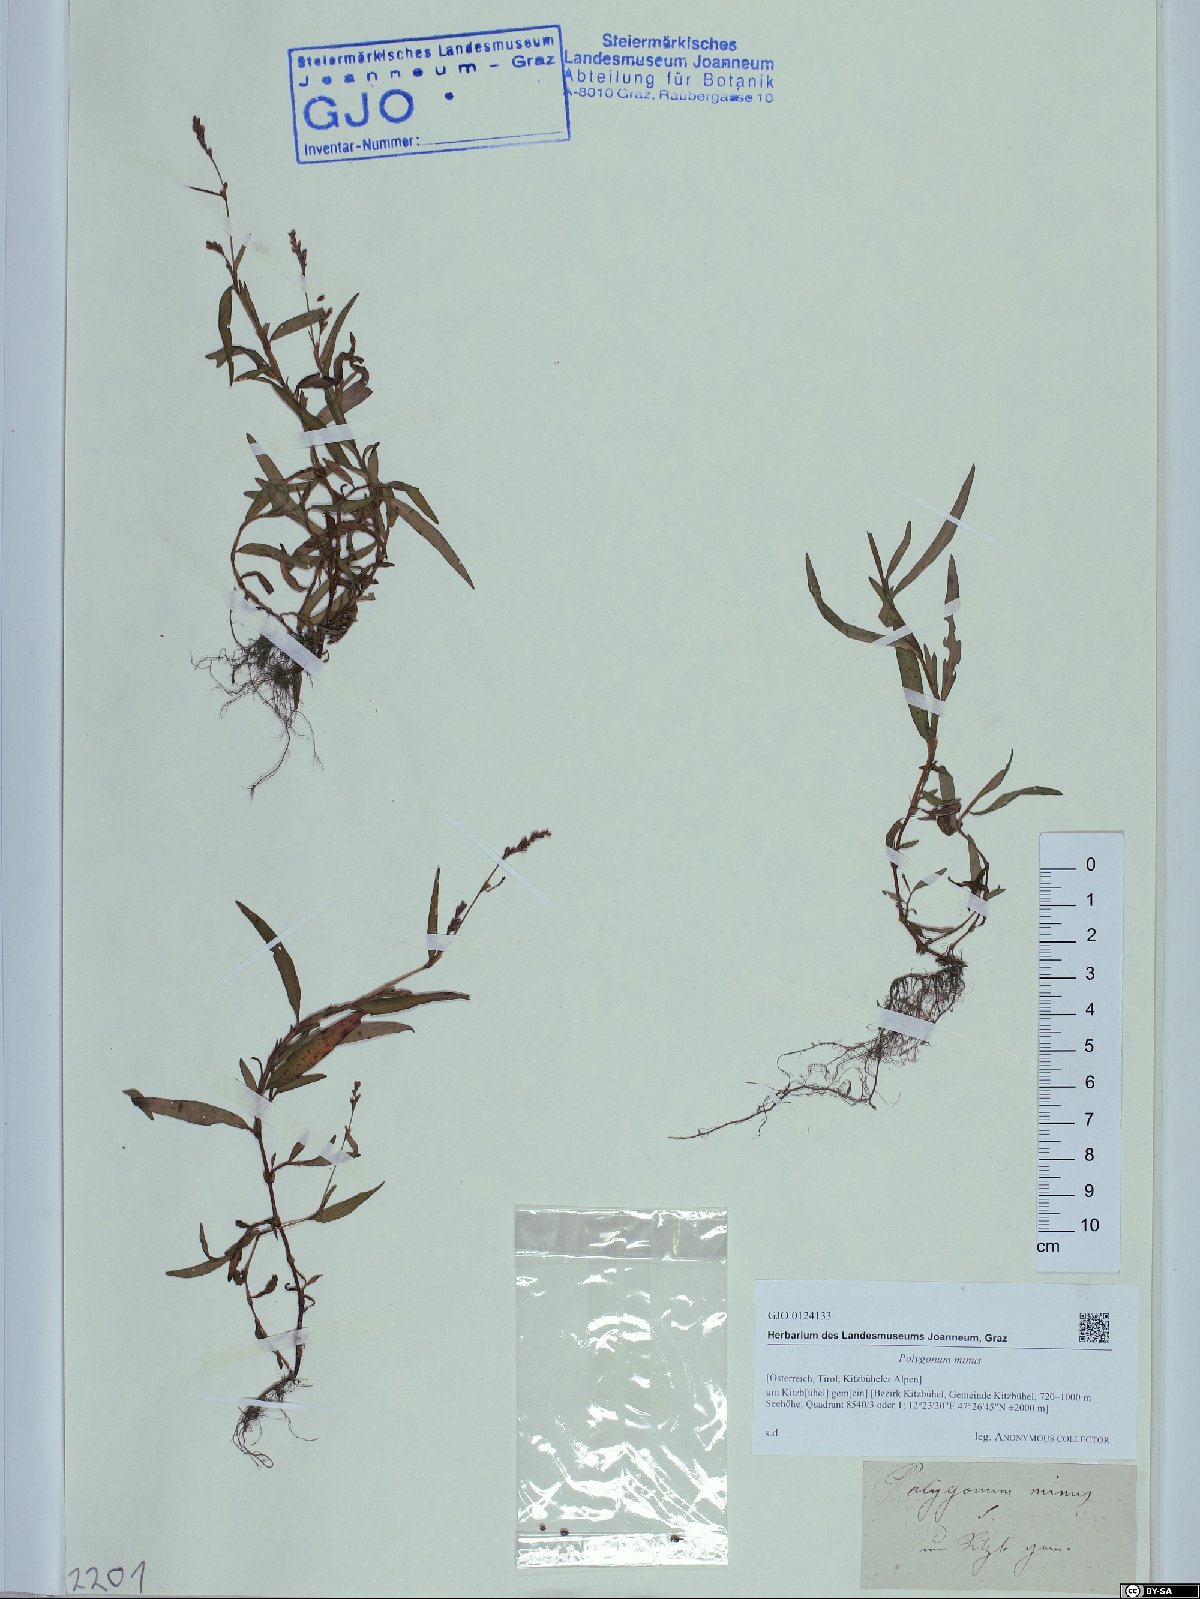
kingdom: Plantae
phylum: Tracheophyta
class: Magnoliopsida
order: Caryophyllales
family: Polygonaceae
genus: Persicaria
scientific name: Persicaria minor
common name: Small water-pepper
